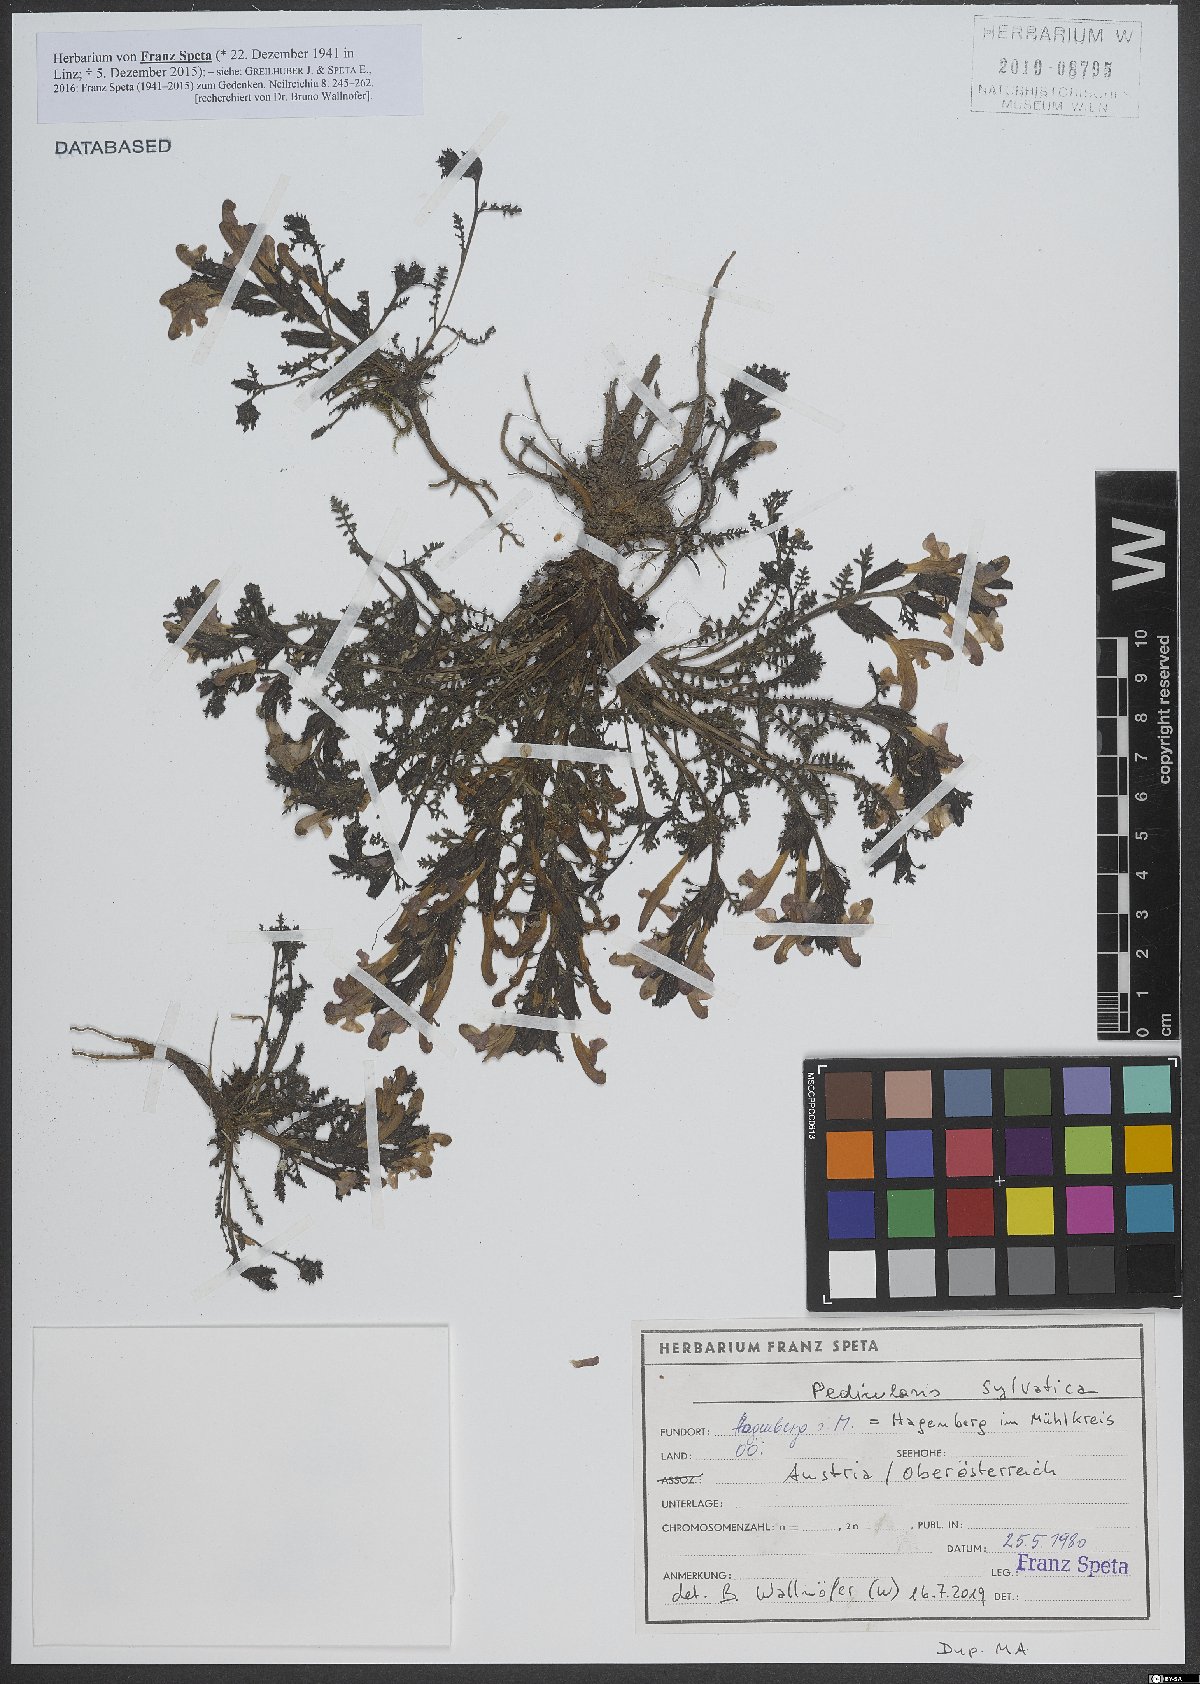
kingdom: Plantae
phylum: Tracheophyta
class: Magnoliopsida
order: Lamiales
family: Orobanchaceae
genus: Pedicularis
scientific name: Pedicularis sylvatica
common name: Lousewort
